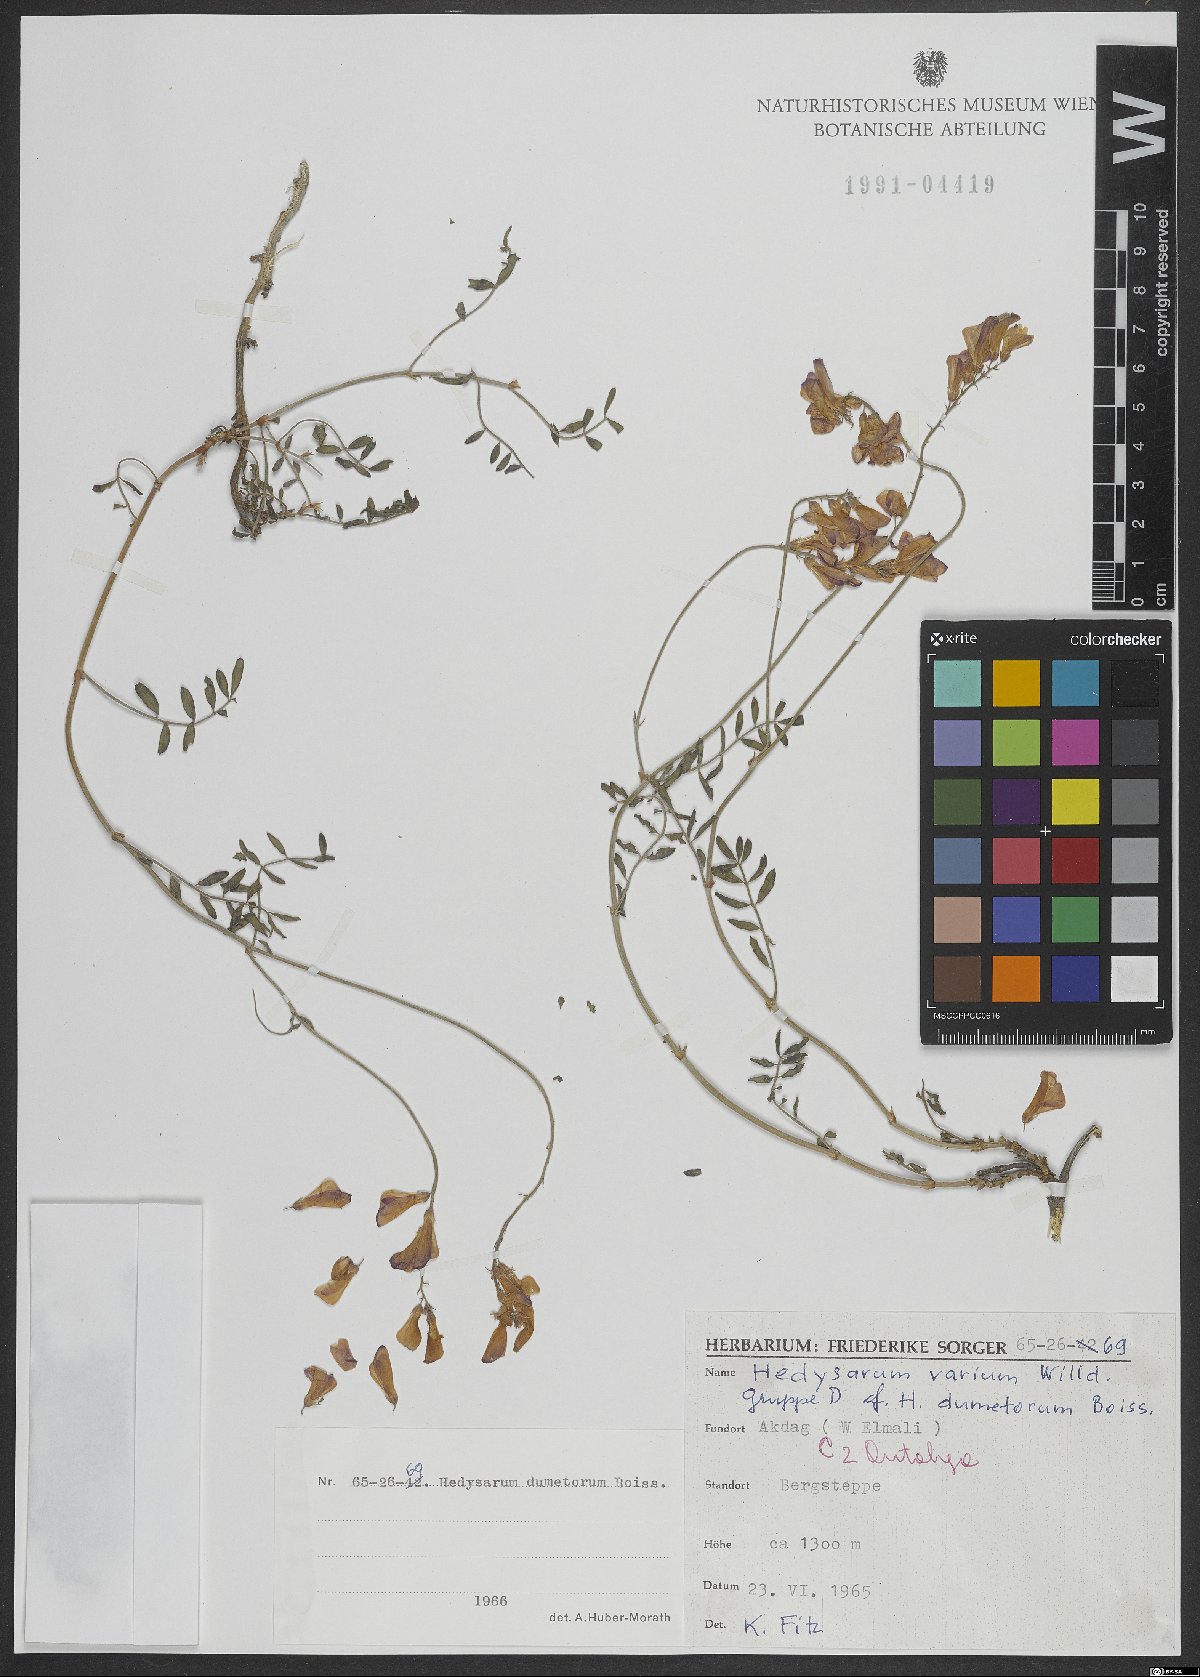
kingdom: Plantae
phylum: Tracheophyta
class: Magnoliopsida
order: Fabales
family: Fabaceae
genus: Hedysarum
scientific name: Hedysarum varium
